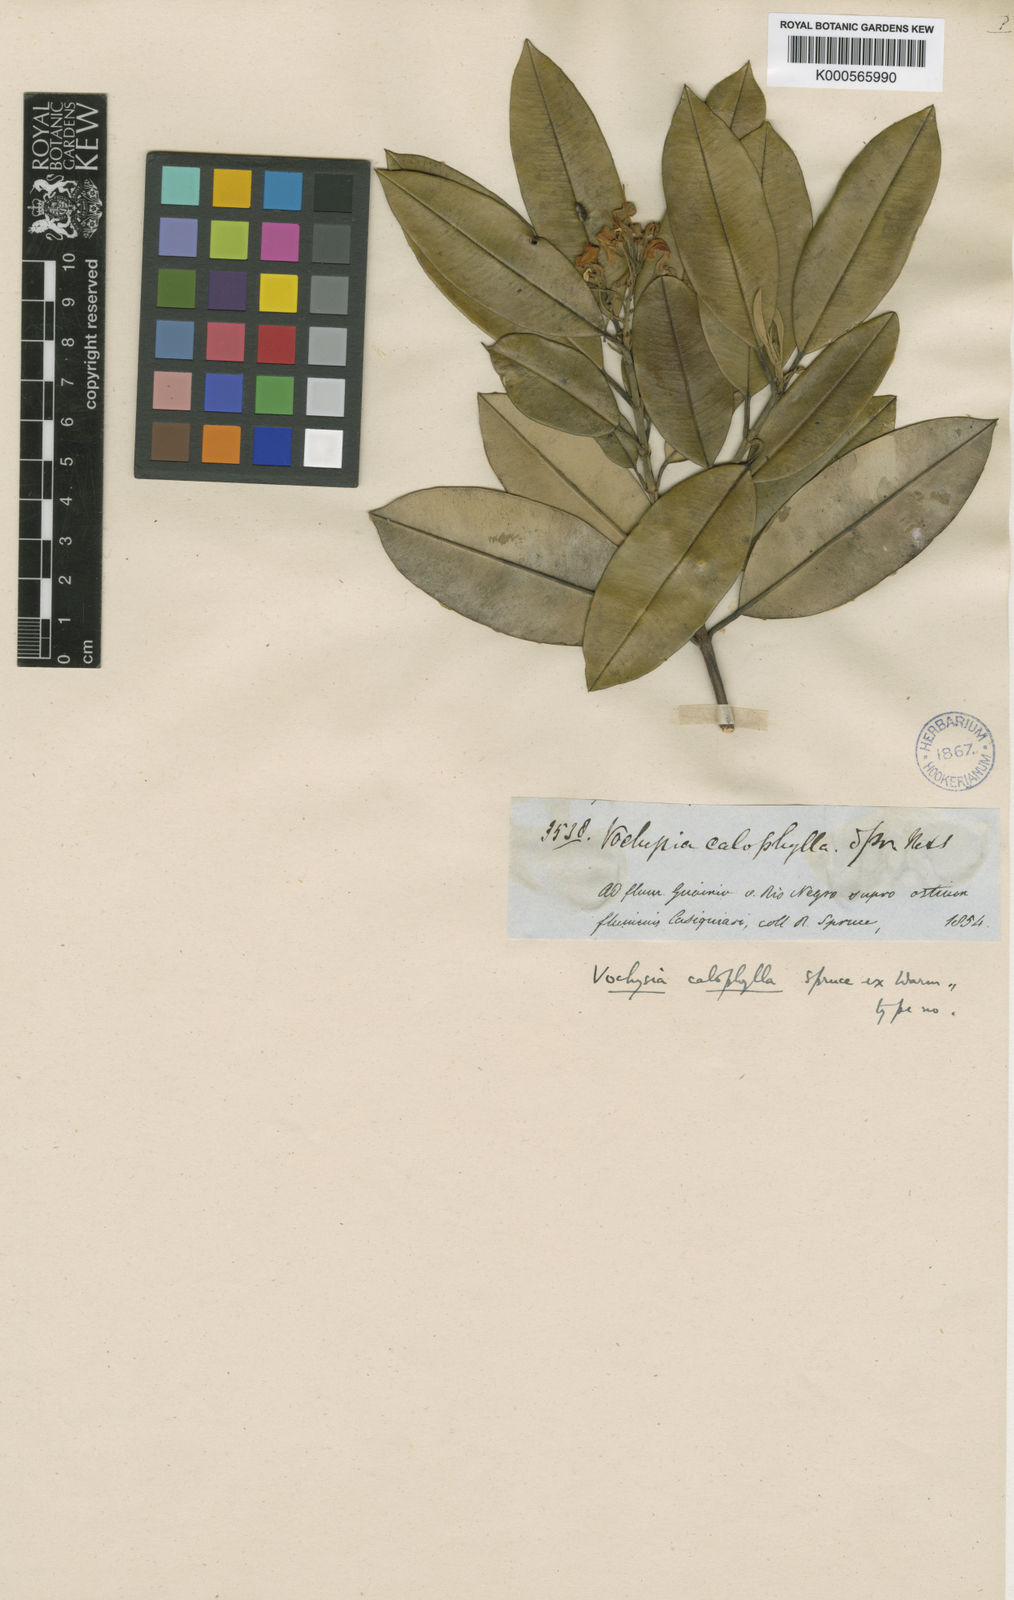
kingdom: Plantae
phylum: Tracheophyta
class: Magnoliopsida
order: Myrtales
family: Vochysiaceae
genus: Vochysia
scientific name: Vochysia calophylla
